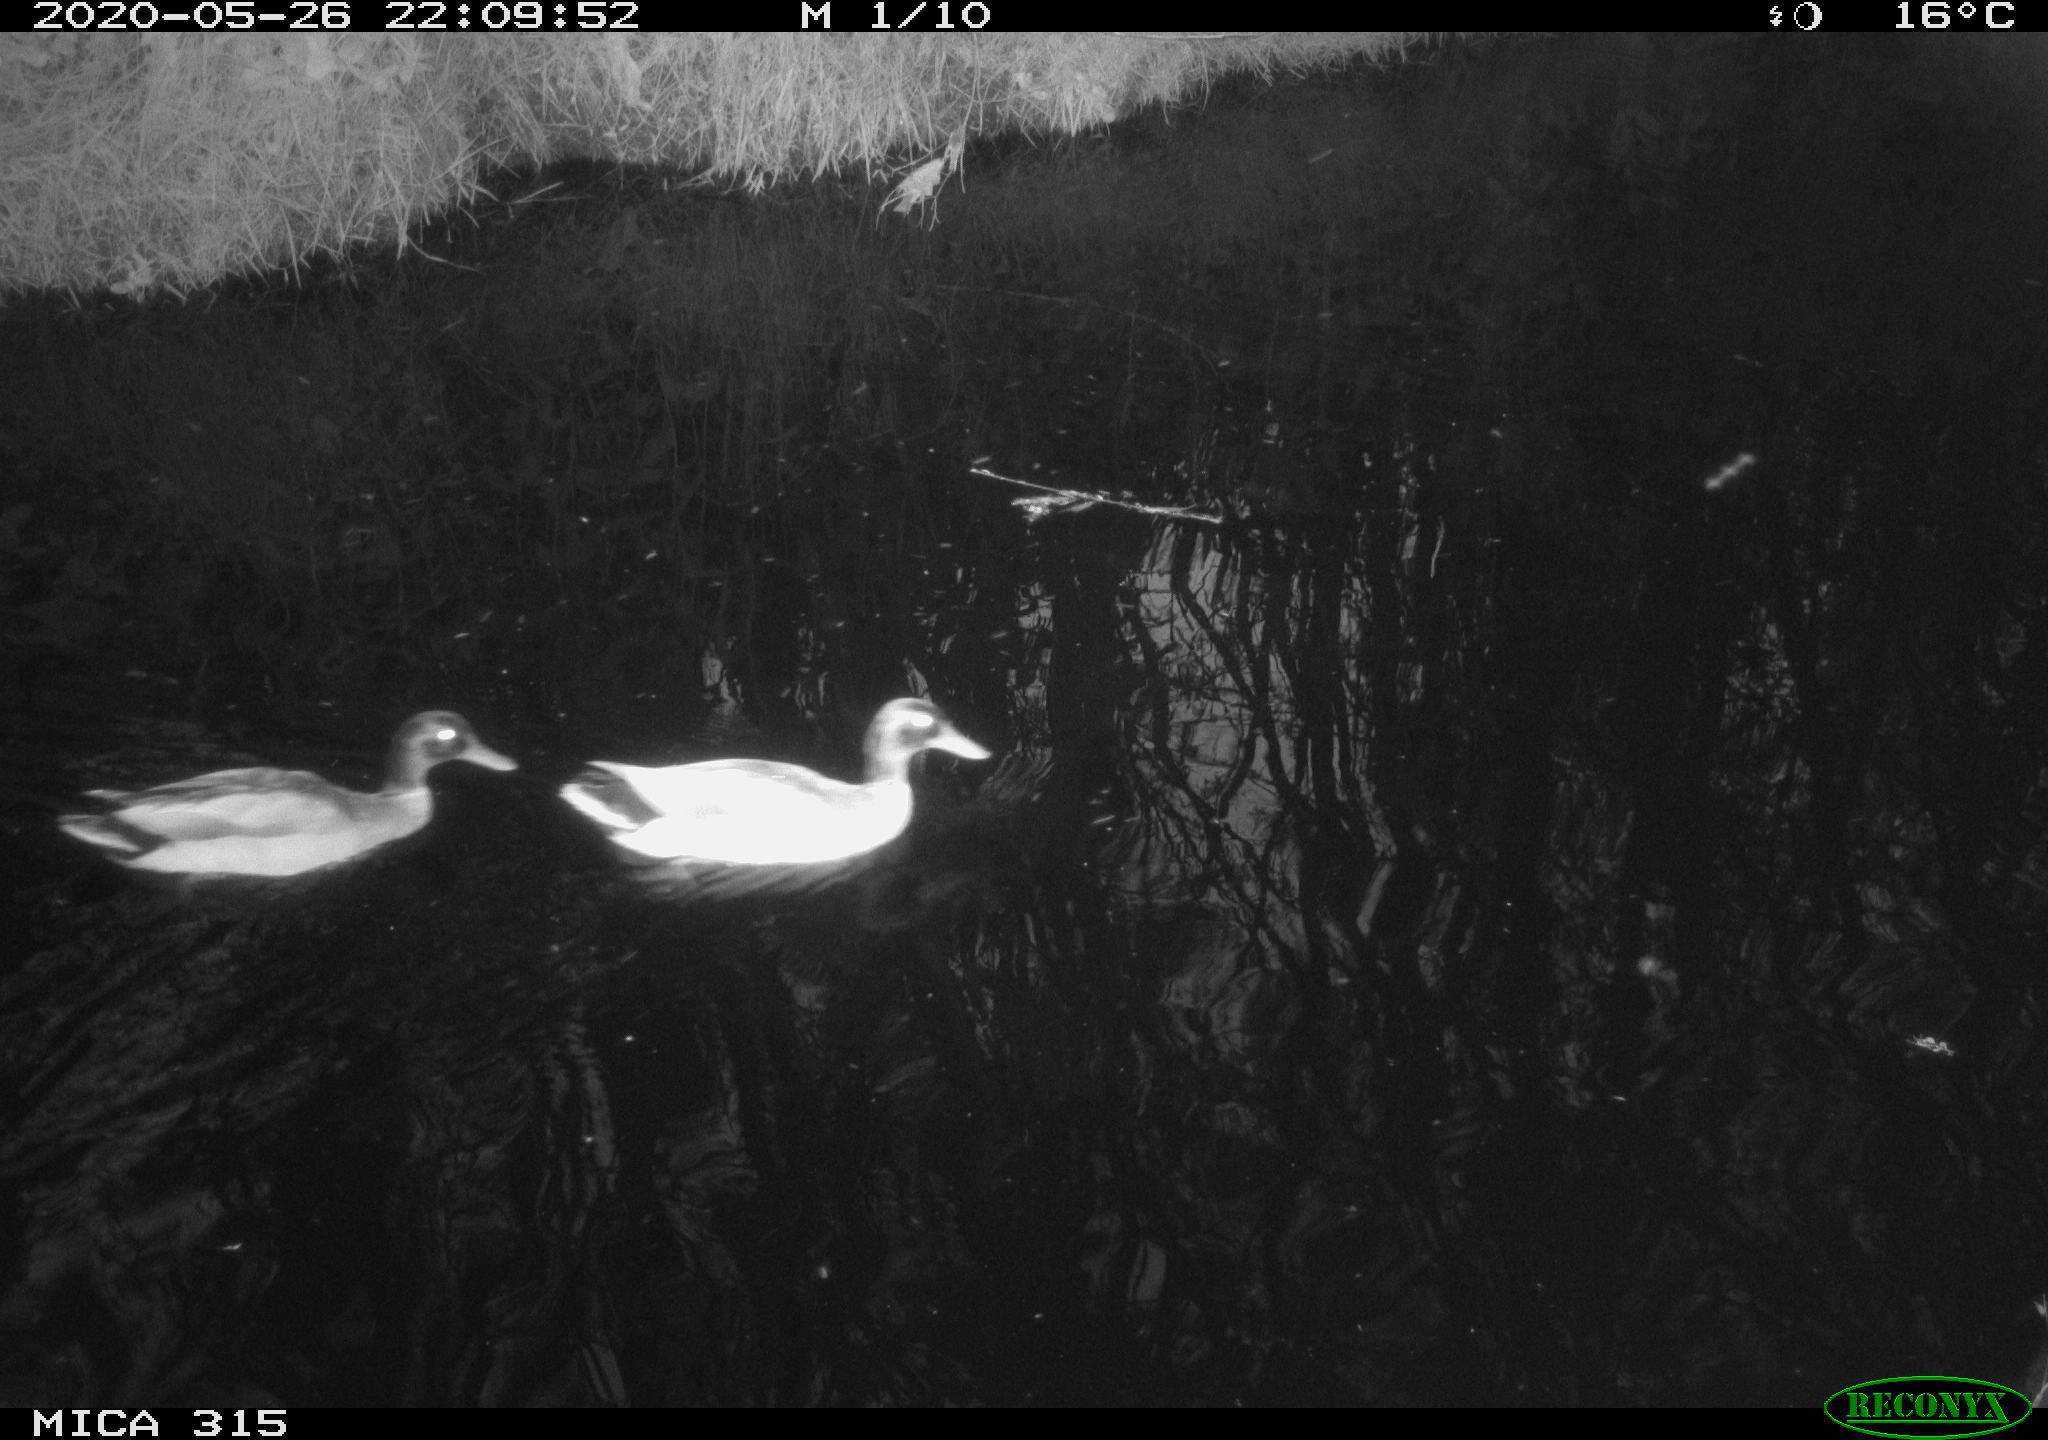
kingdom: Animalia
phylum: Chordata
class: Aves
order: Anseriformes
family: Anatidae
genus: Anas
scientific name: Anas platyrhynchos
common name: Mallard
